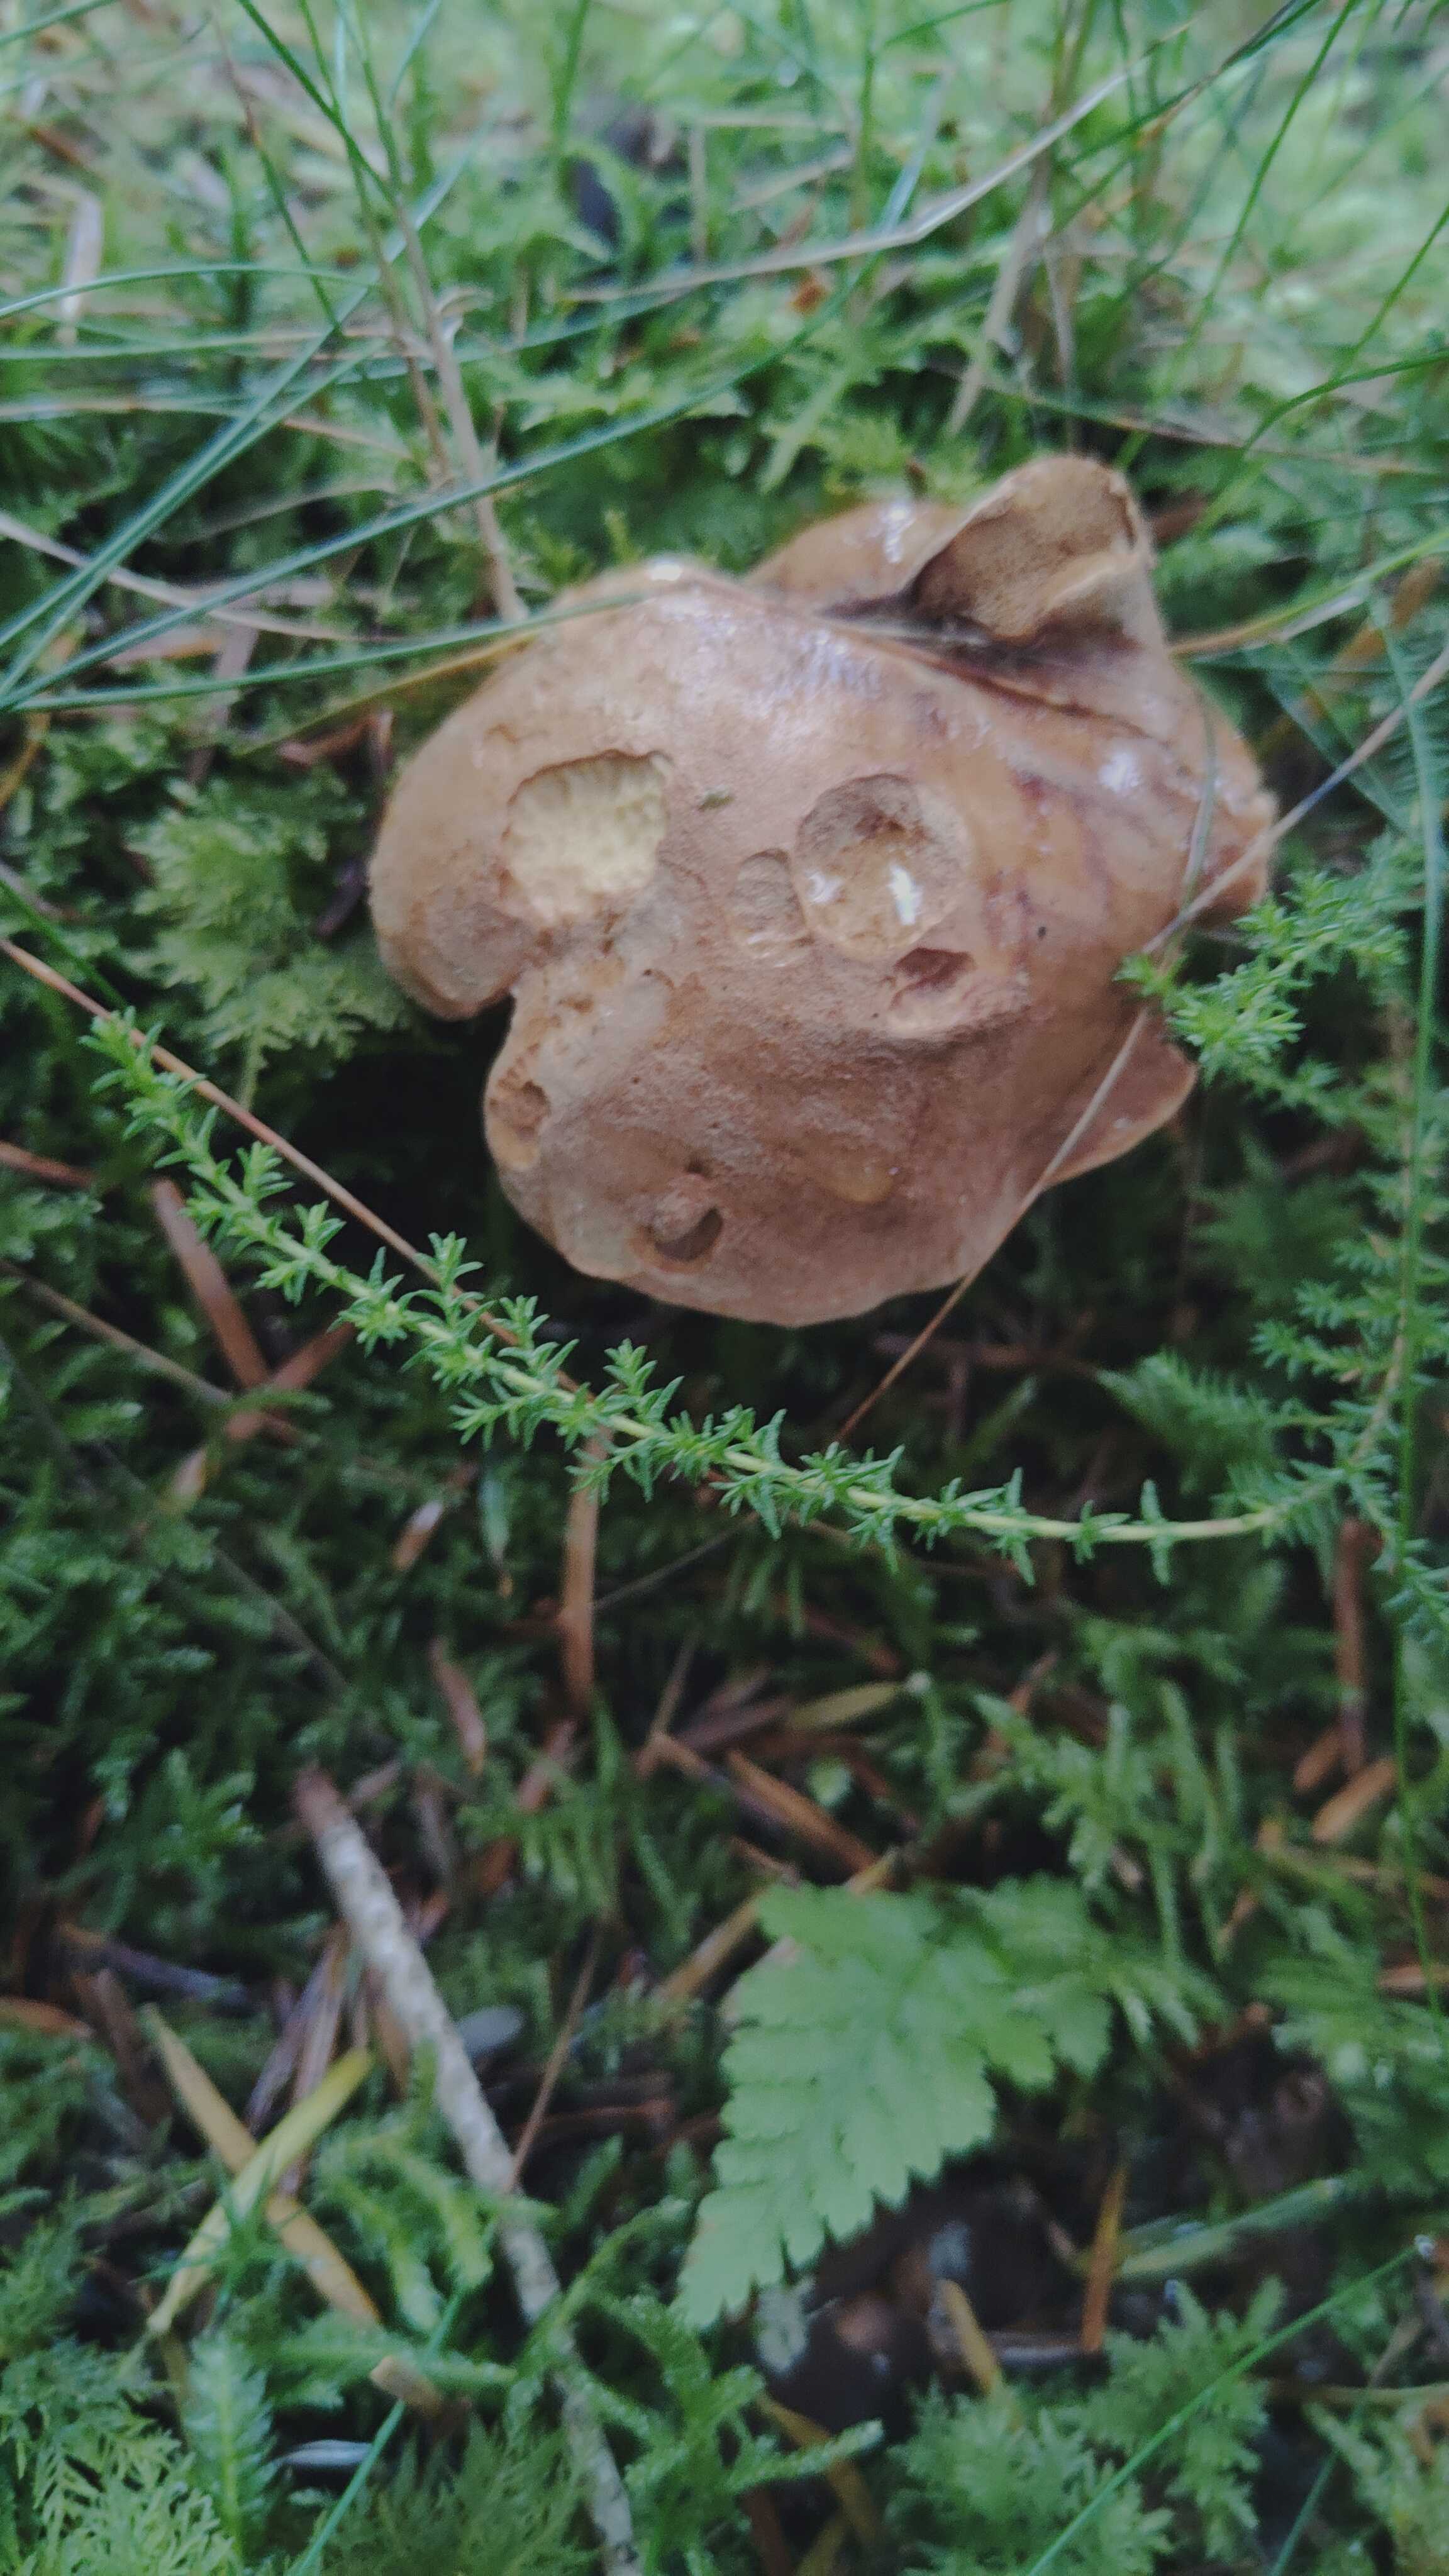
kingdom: Fungi
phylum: Basidiomycota
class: Agaricomycetes
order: Boletales
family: Boletaceae
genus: Chalciporus
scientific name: Chalciporus piperatus
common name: peberrørhat
